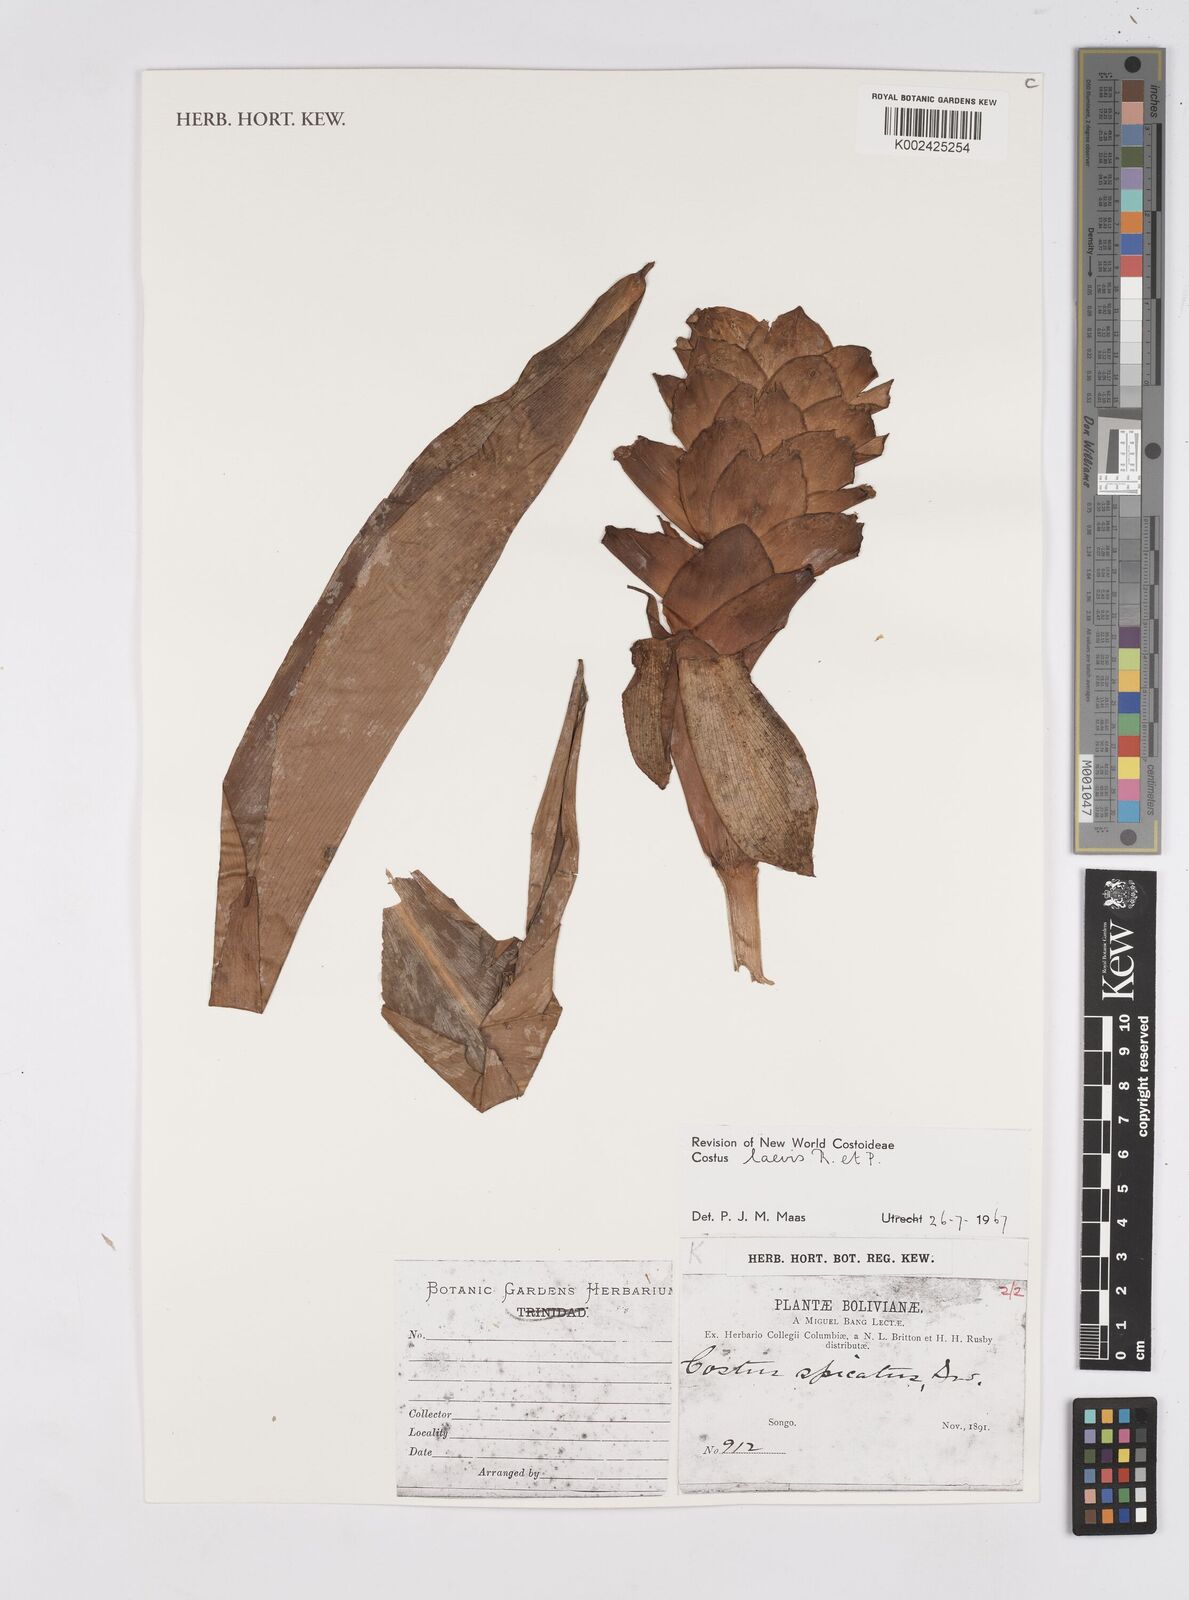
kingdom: Plantae
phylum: Tracheophyta
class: Liliopsida
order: Zingiberales
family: Costaceae
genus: Costus
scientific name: Costus laevis
